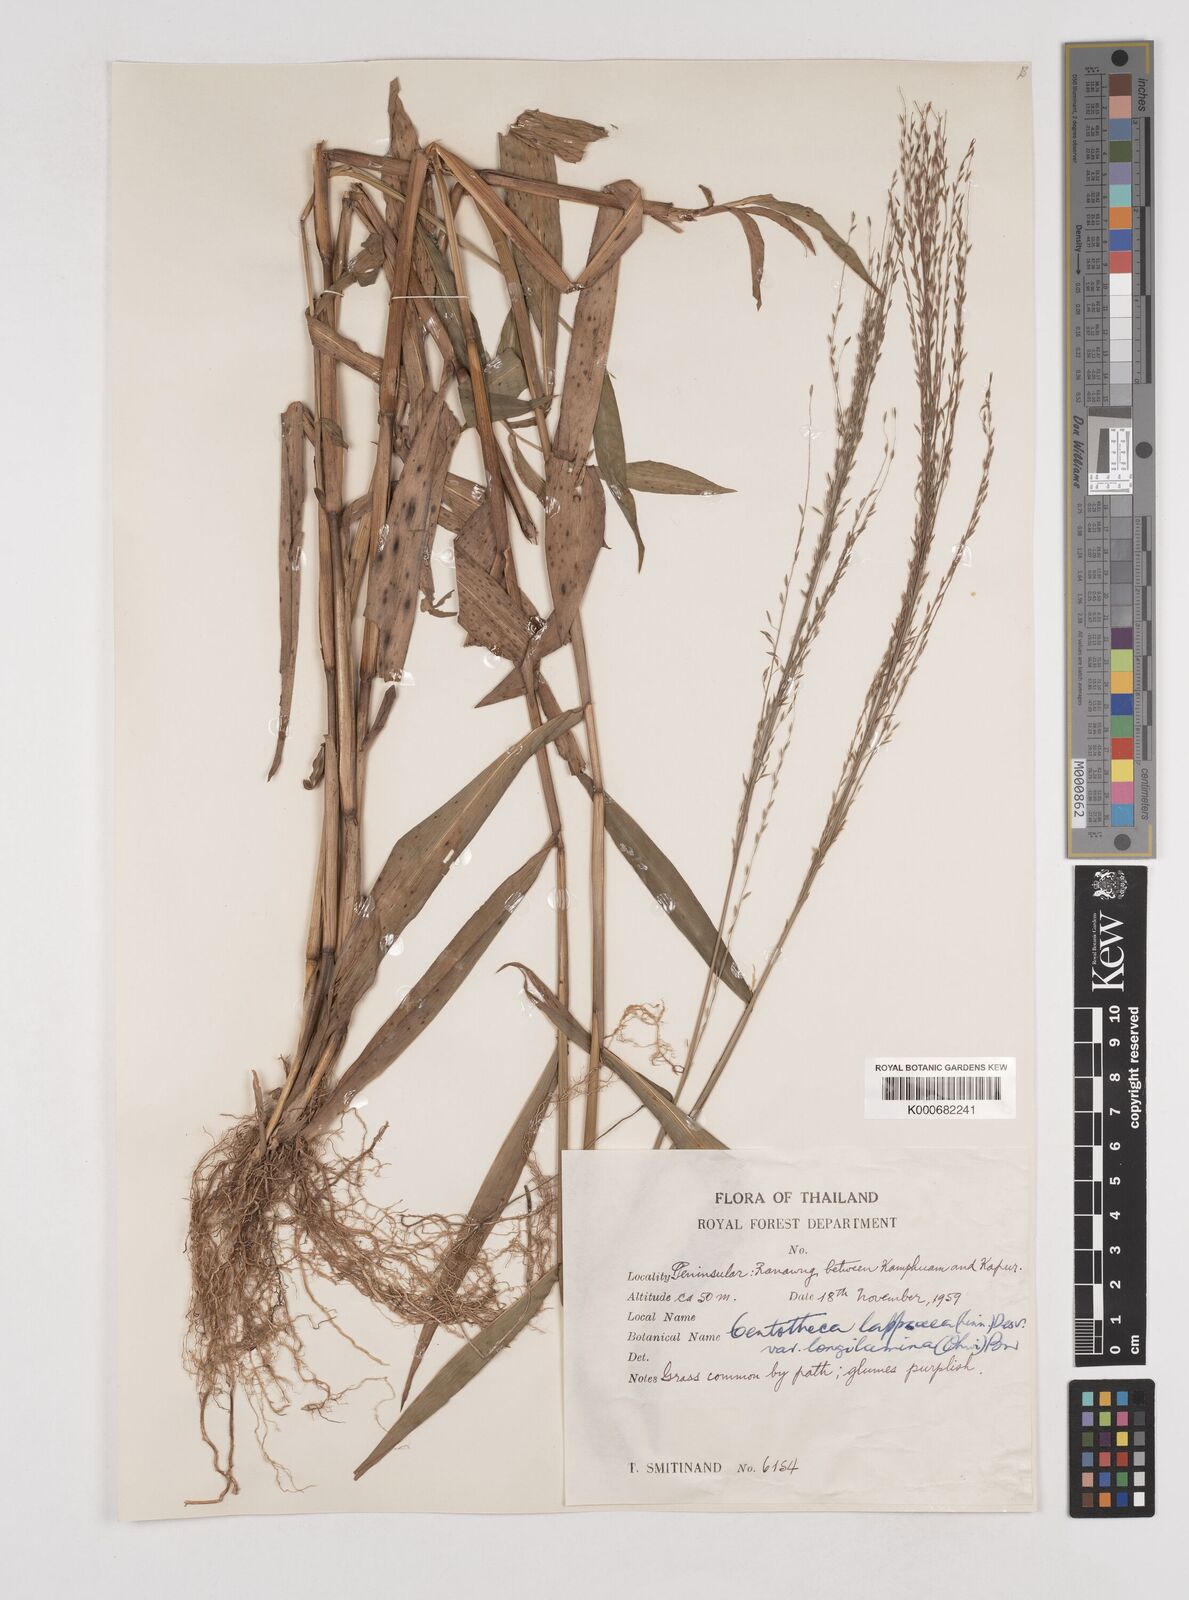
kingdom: Plantae
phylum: Tracheophyta
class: Liliopsida
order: Poales
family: Poaceae
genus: Centotheca
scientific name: Centotheca lappacea
